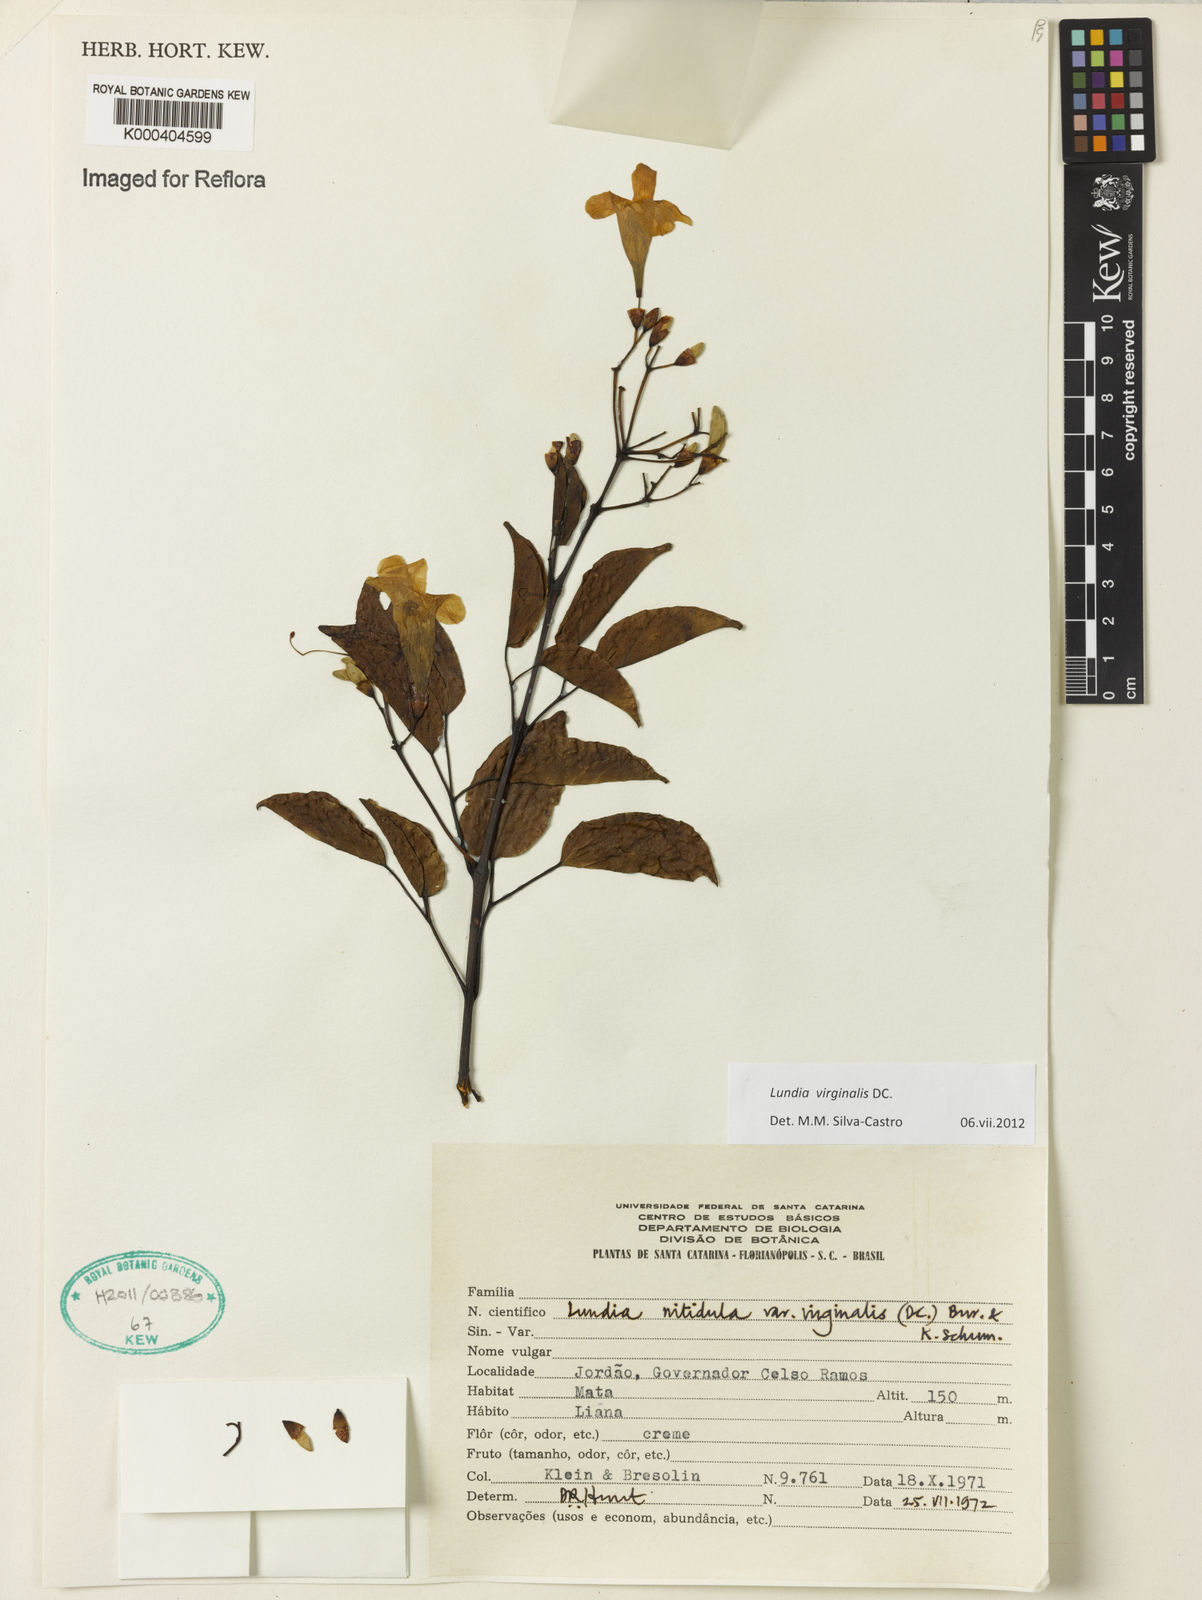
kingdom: Plantae
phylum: Tracheophyta
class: Magnoliopsida
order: Lamiales
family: Bignoniaceae
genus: Lundia
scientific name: Lundia virginalis
